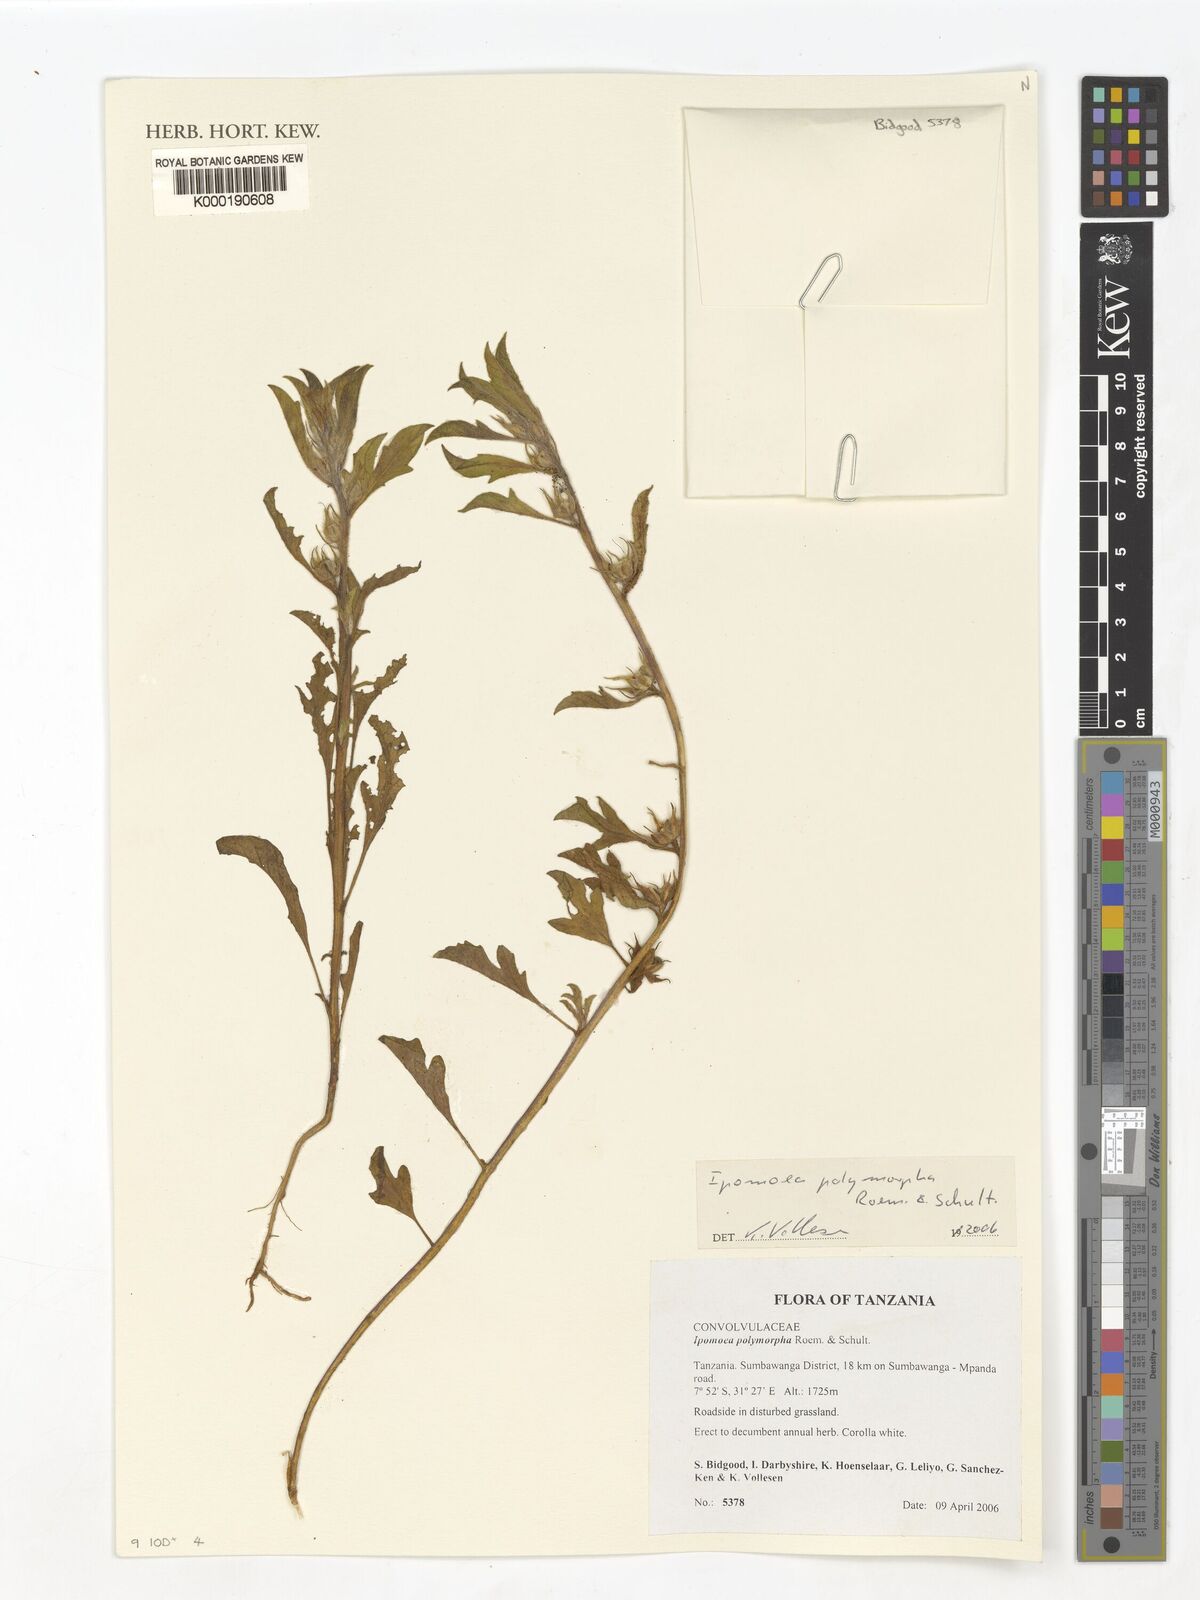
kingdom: Plantae
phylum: Tracheophyta
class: Magnoliopsida
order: Solanales
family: Convolvulaceae
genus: Ipomoea
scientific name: Ipomoea polymorpha
